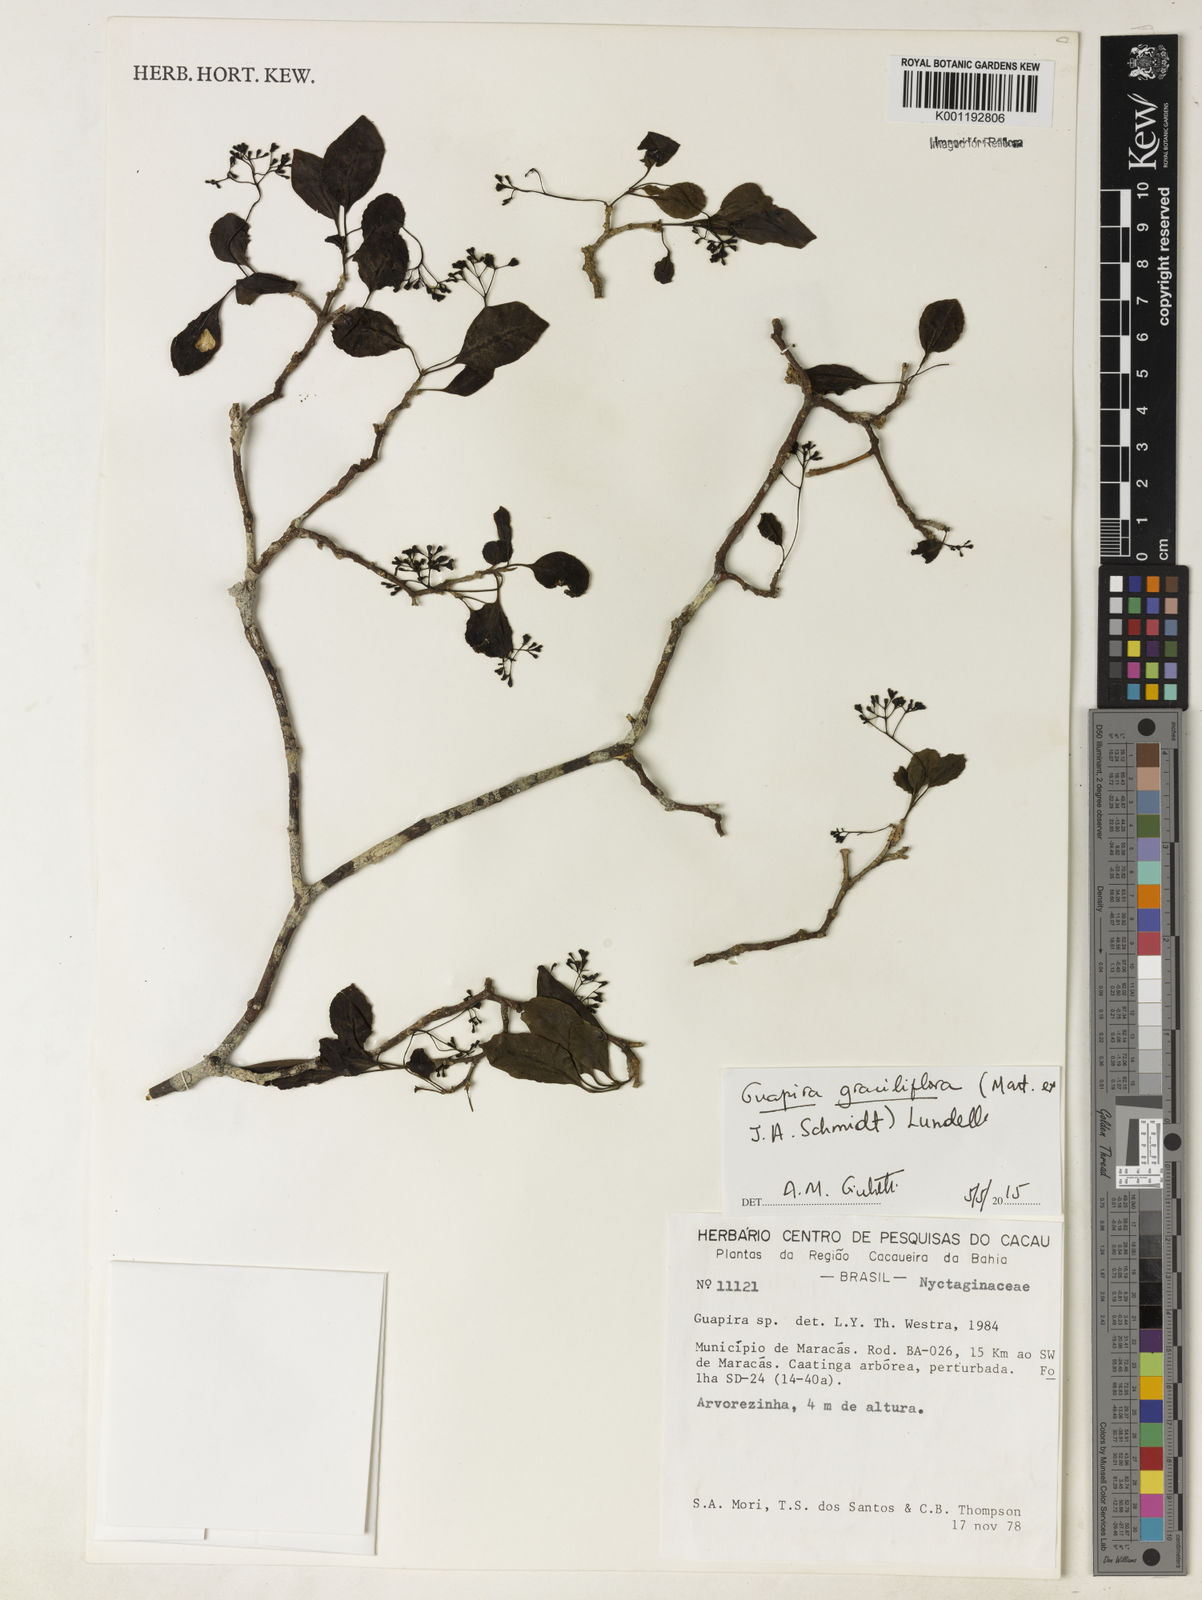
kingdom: Plantae
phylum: Tracheophyta
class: Magnoliopsida
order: Caryophyllales
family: Nyctaginaceae
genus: Guapira
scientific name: Guapira graciliflora
